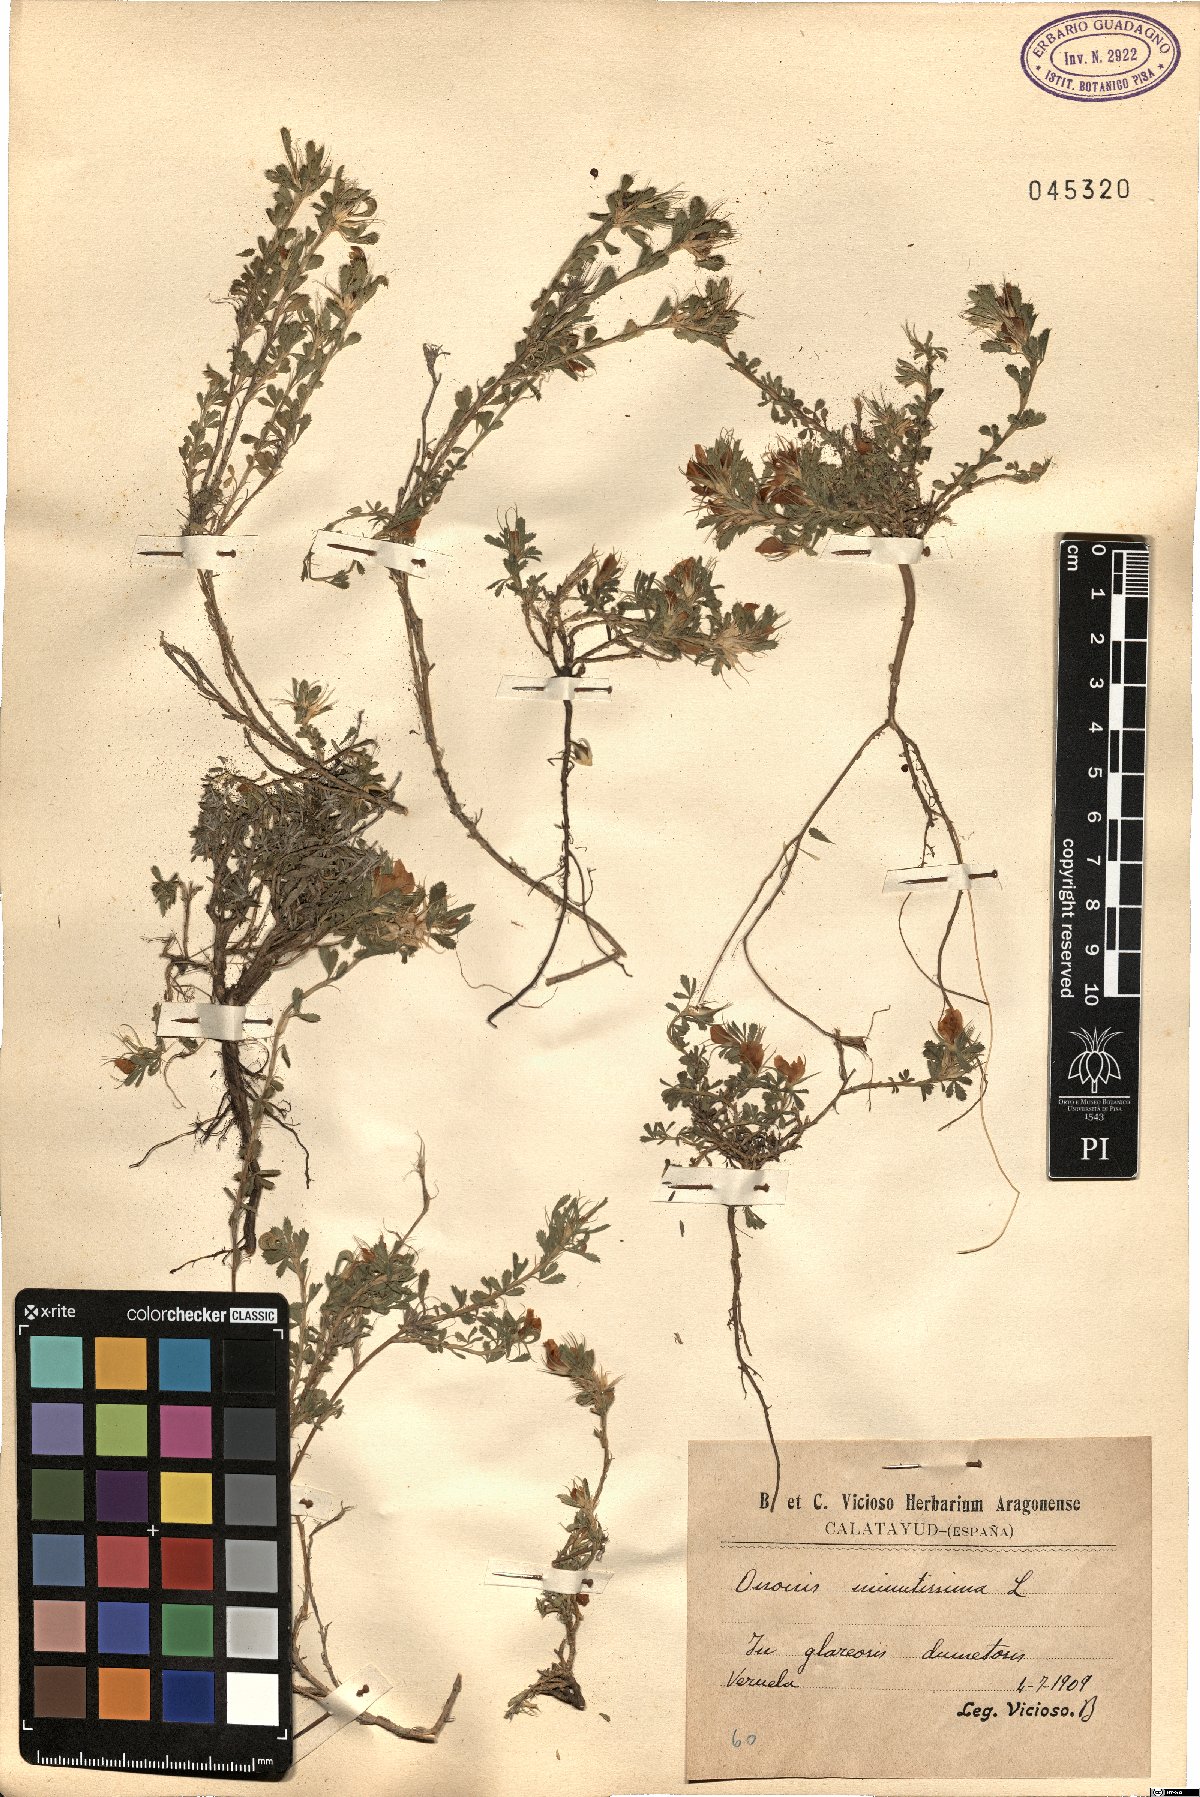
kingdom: Plantae
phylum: Tracheophyta
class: Magnoliopsida
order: Fabales
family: Fabaceae
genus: Ononis
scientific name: Ononis minutissima
